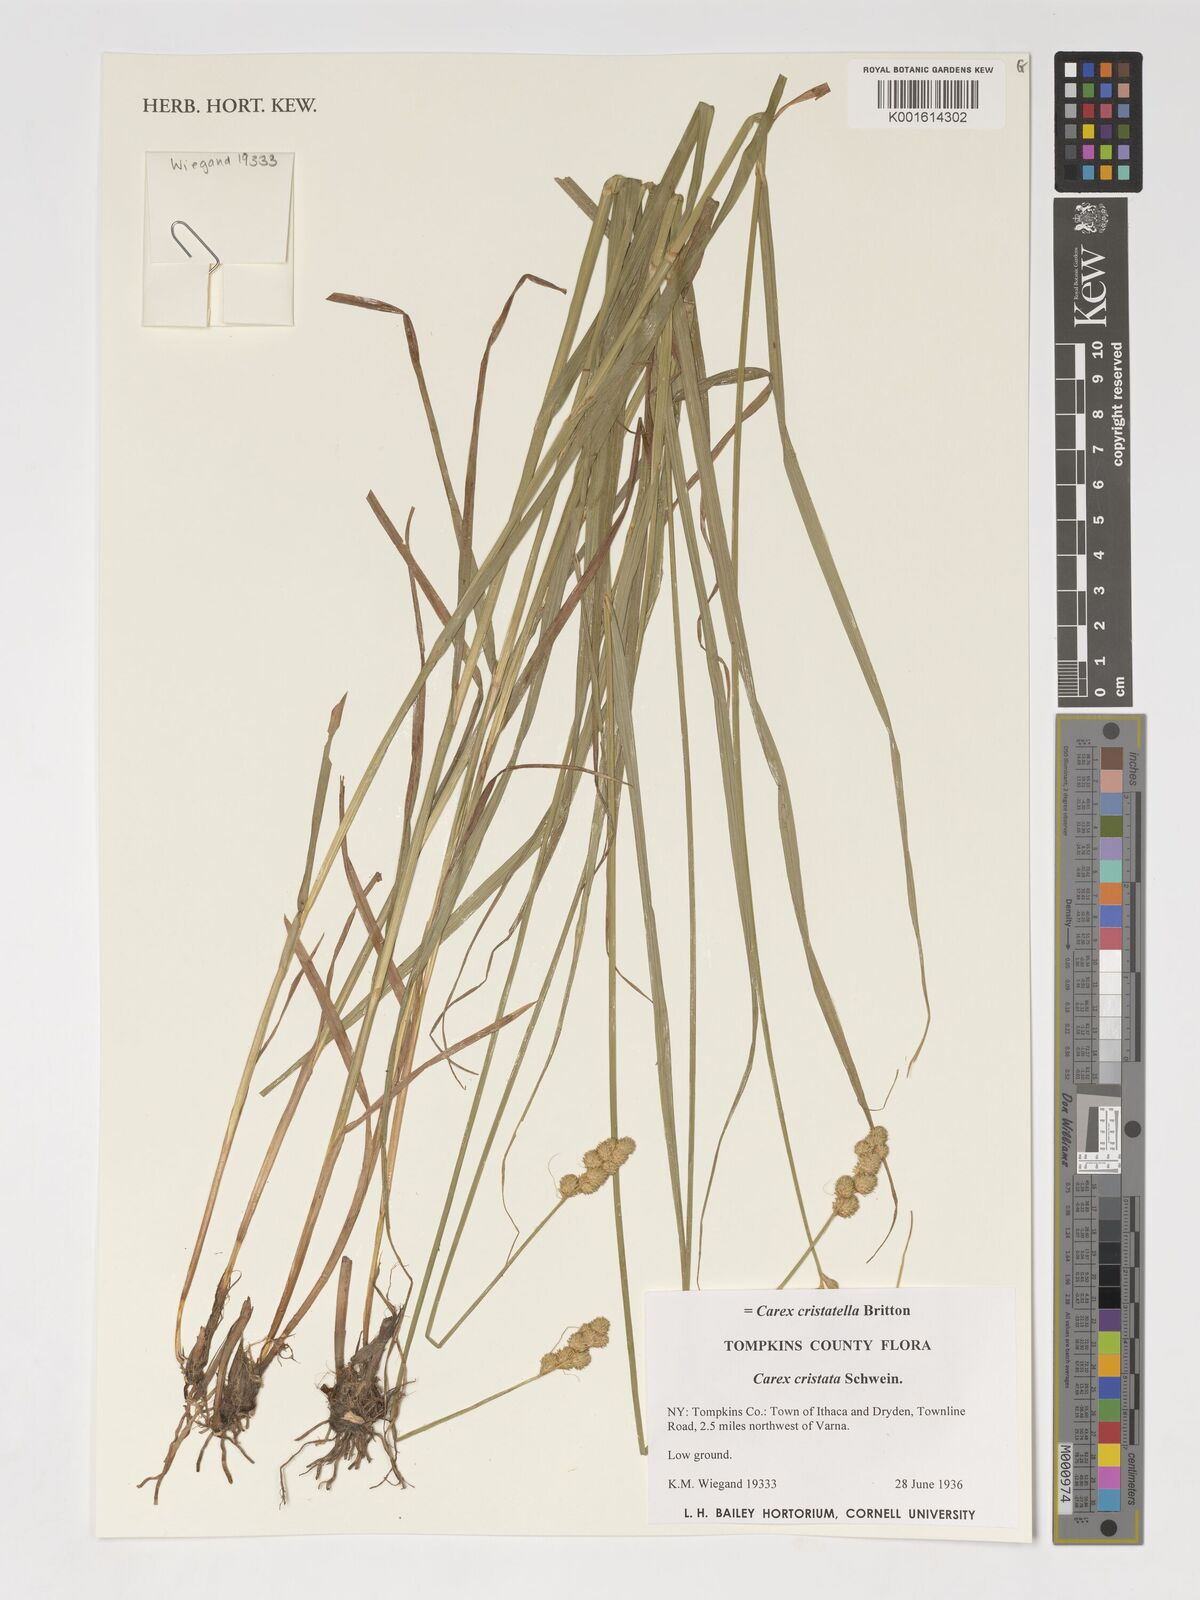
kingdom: Plantae
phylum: Tracheophyta
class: Liliopsida
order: Poales
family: Cyperaceae
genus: Carex
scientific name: Carex cristatella
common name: Crested oval sedge
